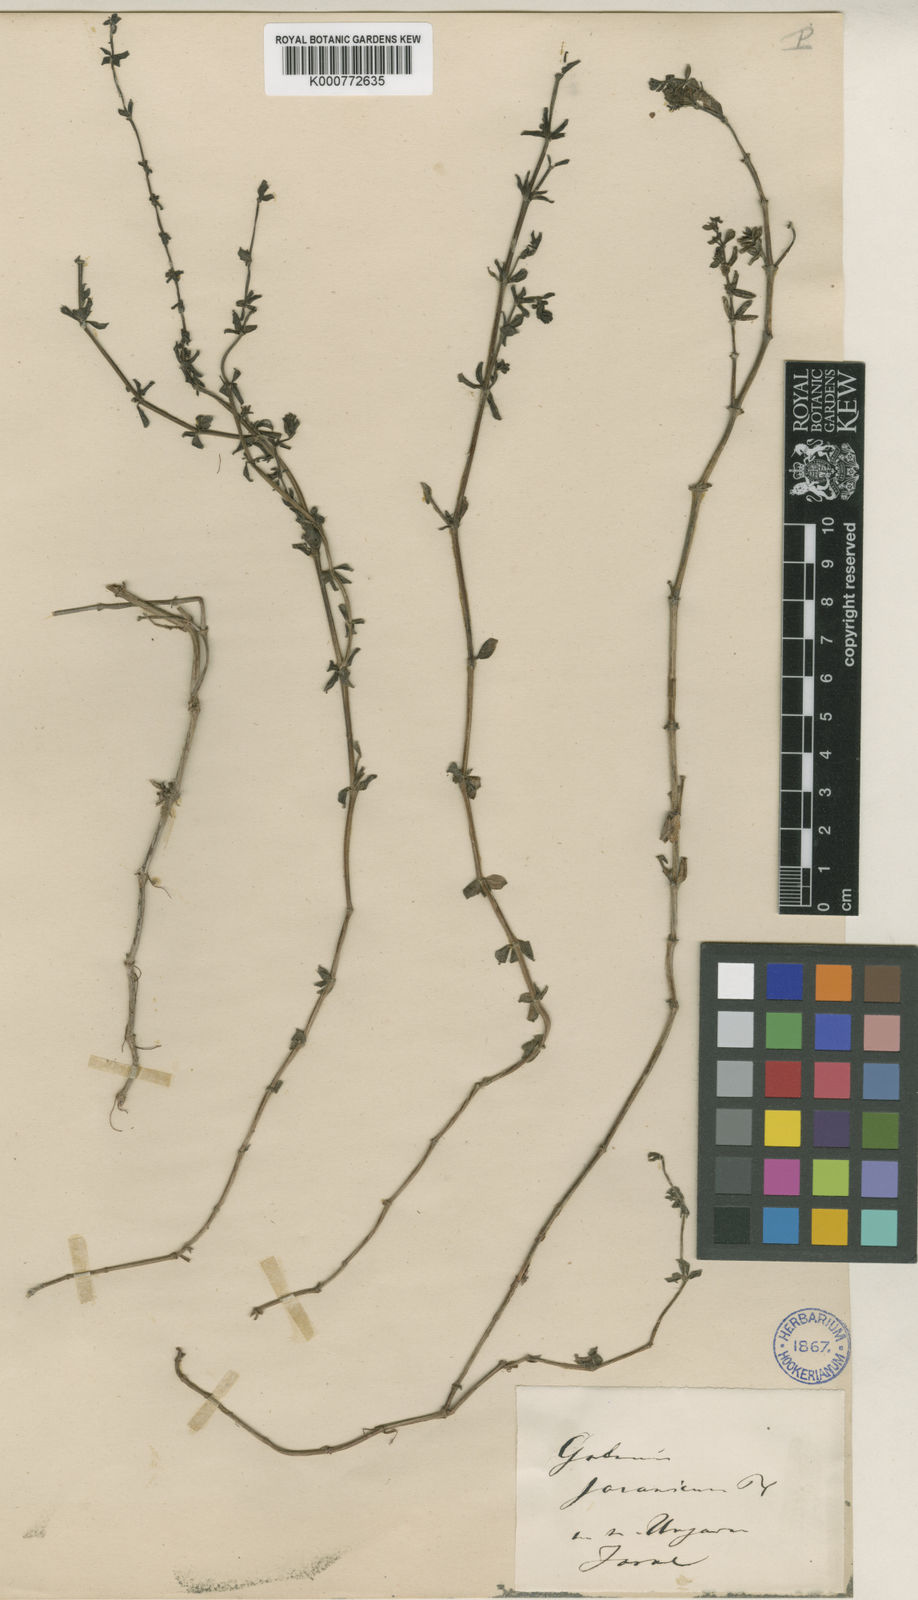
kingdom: Plantae
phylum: Tracheophyta
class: Magnoliopsida
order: Gentianales
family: Rubiaceae
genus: Galium
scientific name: Galium javanicum
